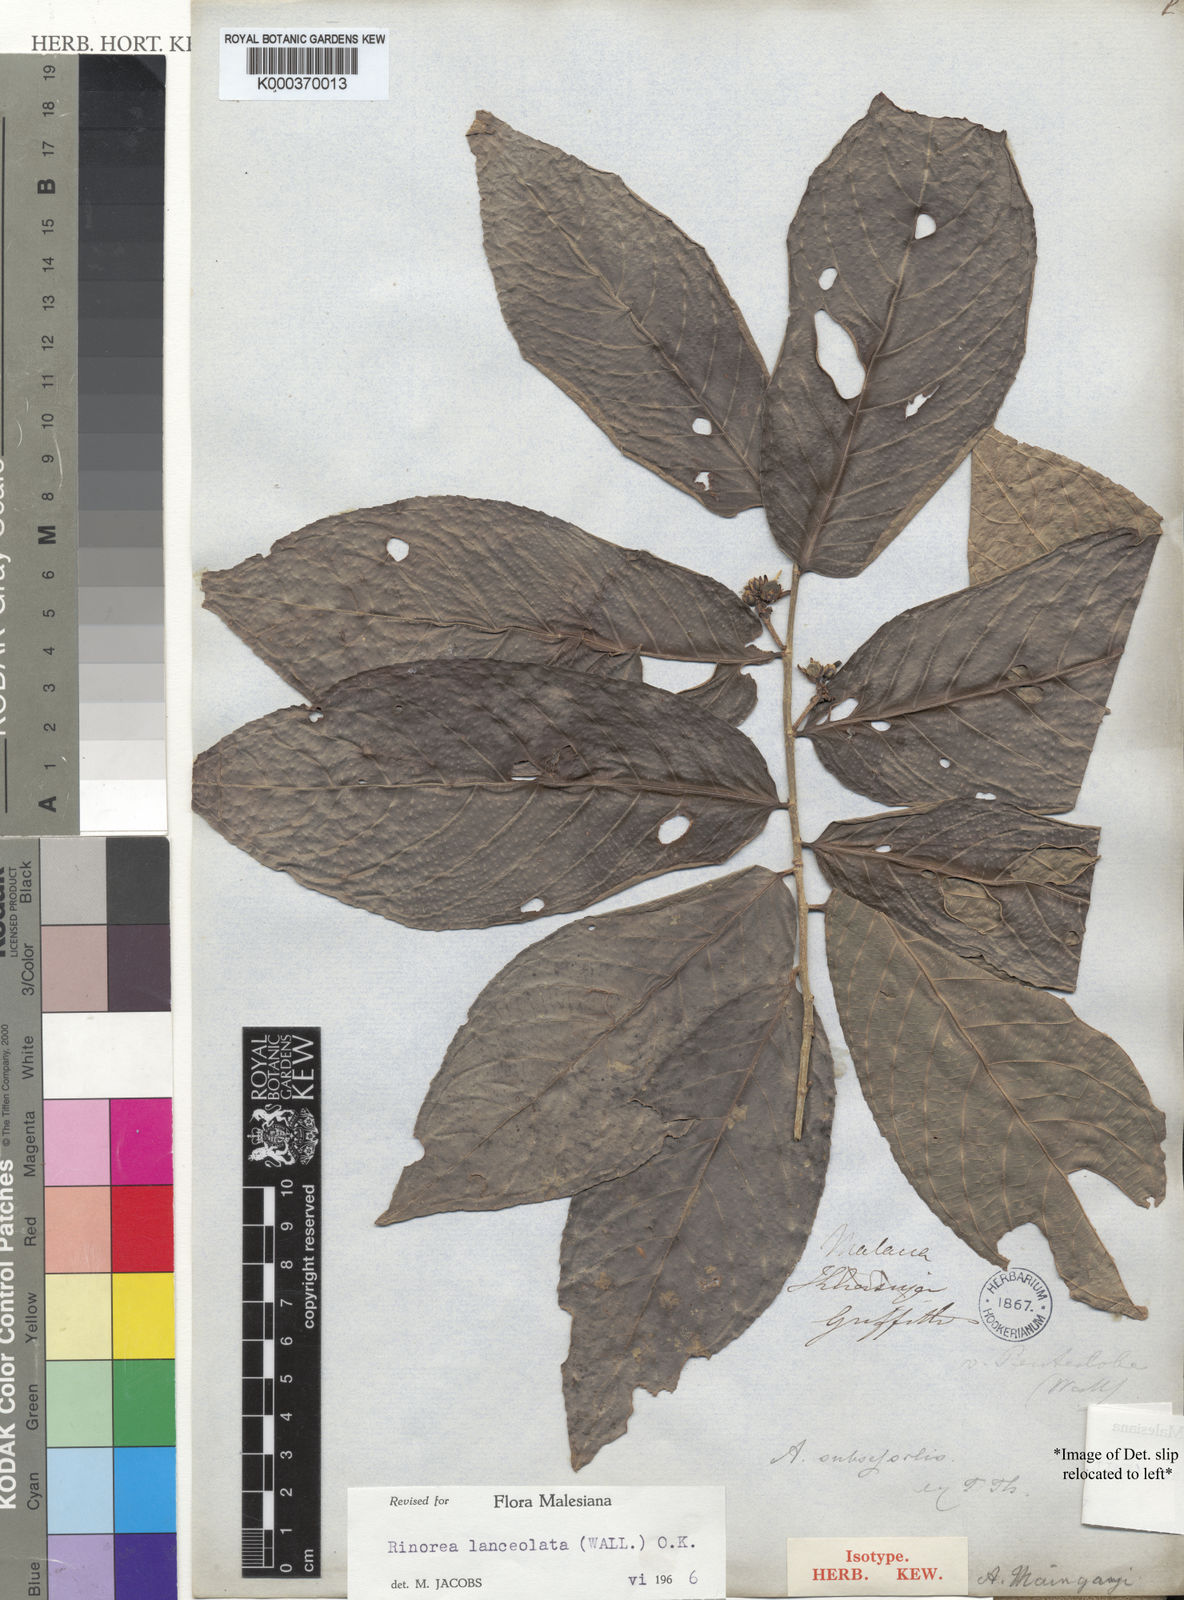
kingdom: Plantae
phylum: Tracheophyta
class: Magnoliopsida
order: Malpighiales
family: Violaceae
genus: Rinorea
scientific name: Rinorea lanceolata
